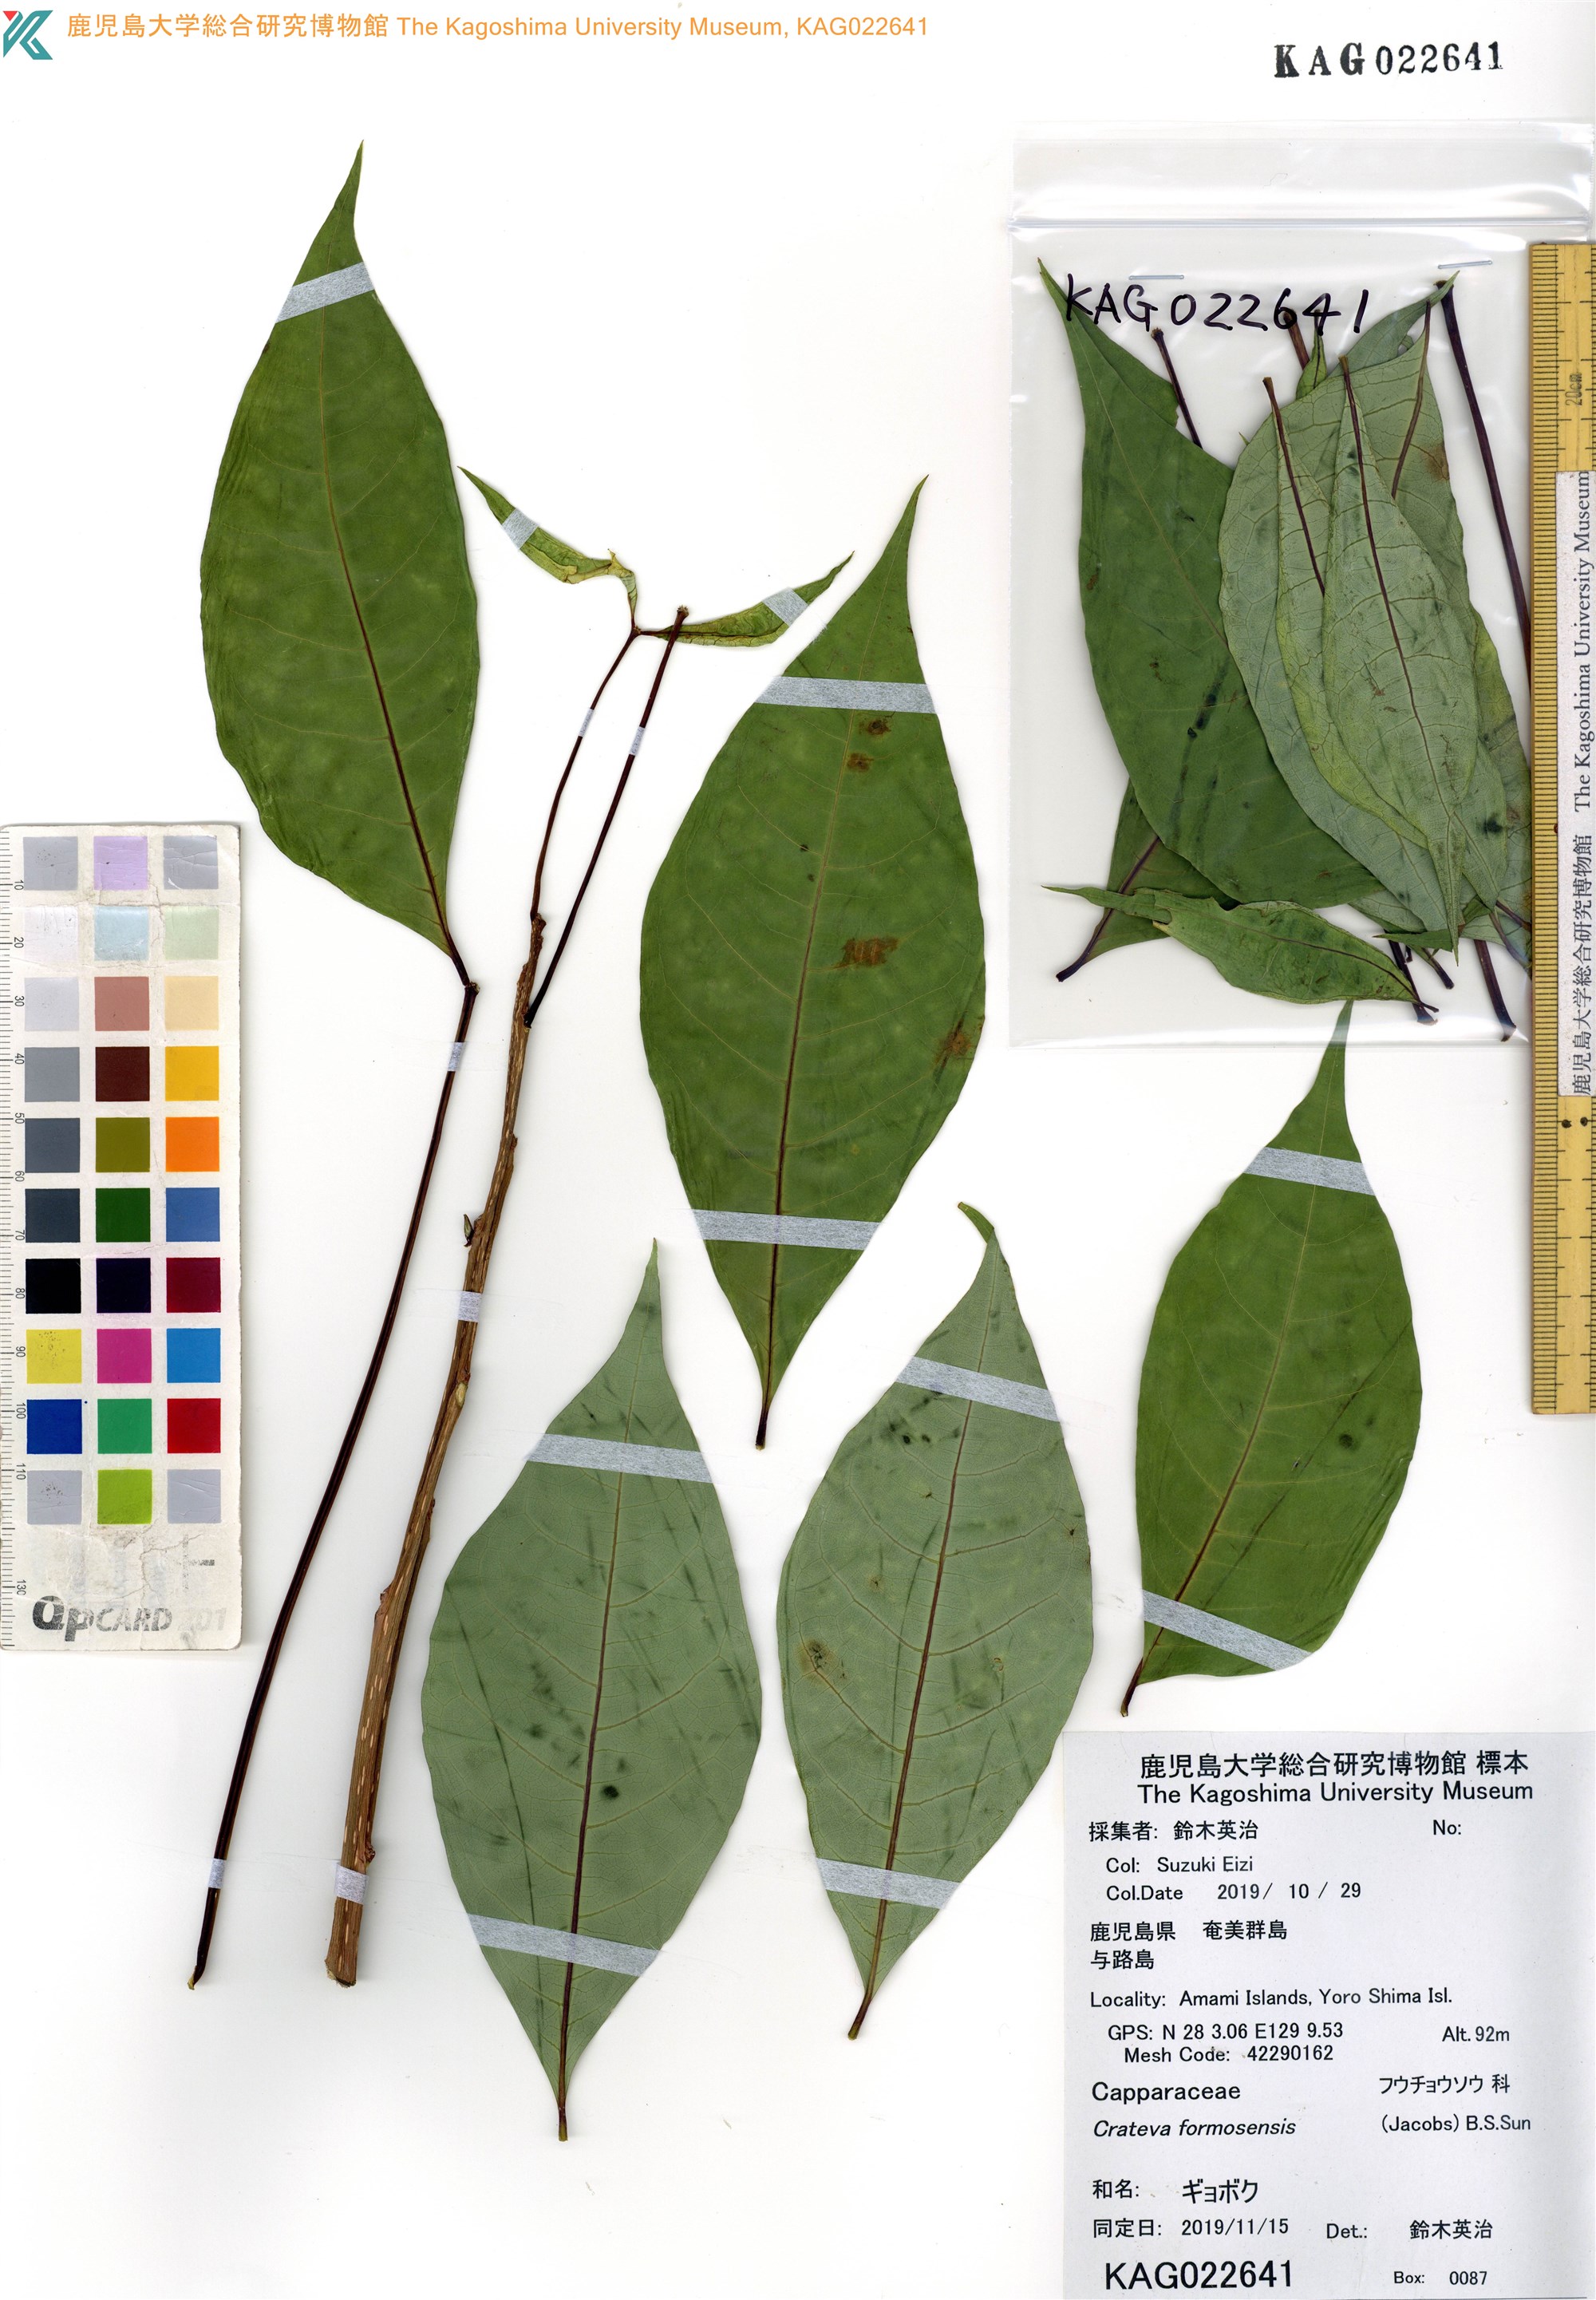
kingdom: Plantae
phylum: Tracheophyta
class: Magnoliopsida
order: Brassicales
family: Capparaceae
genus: Crateva
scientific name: Crateva formosensis
